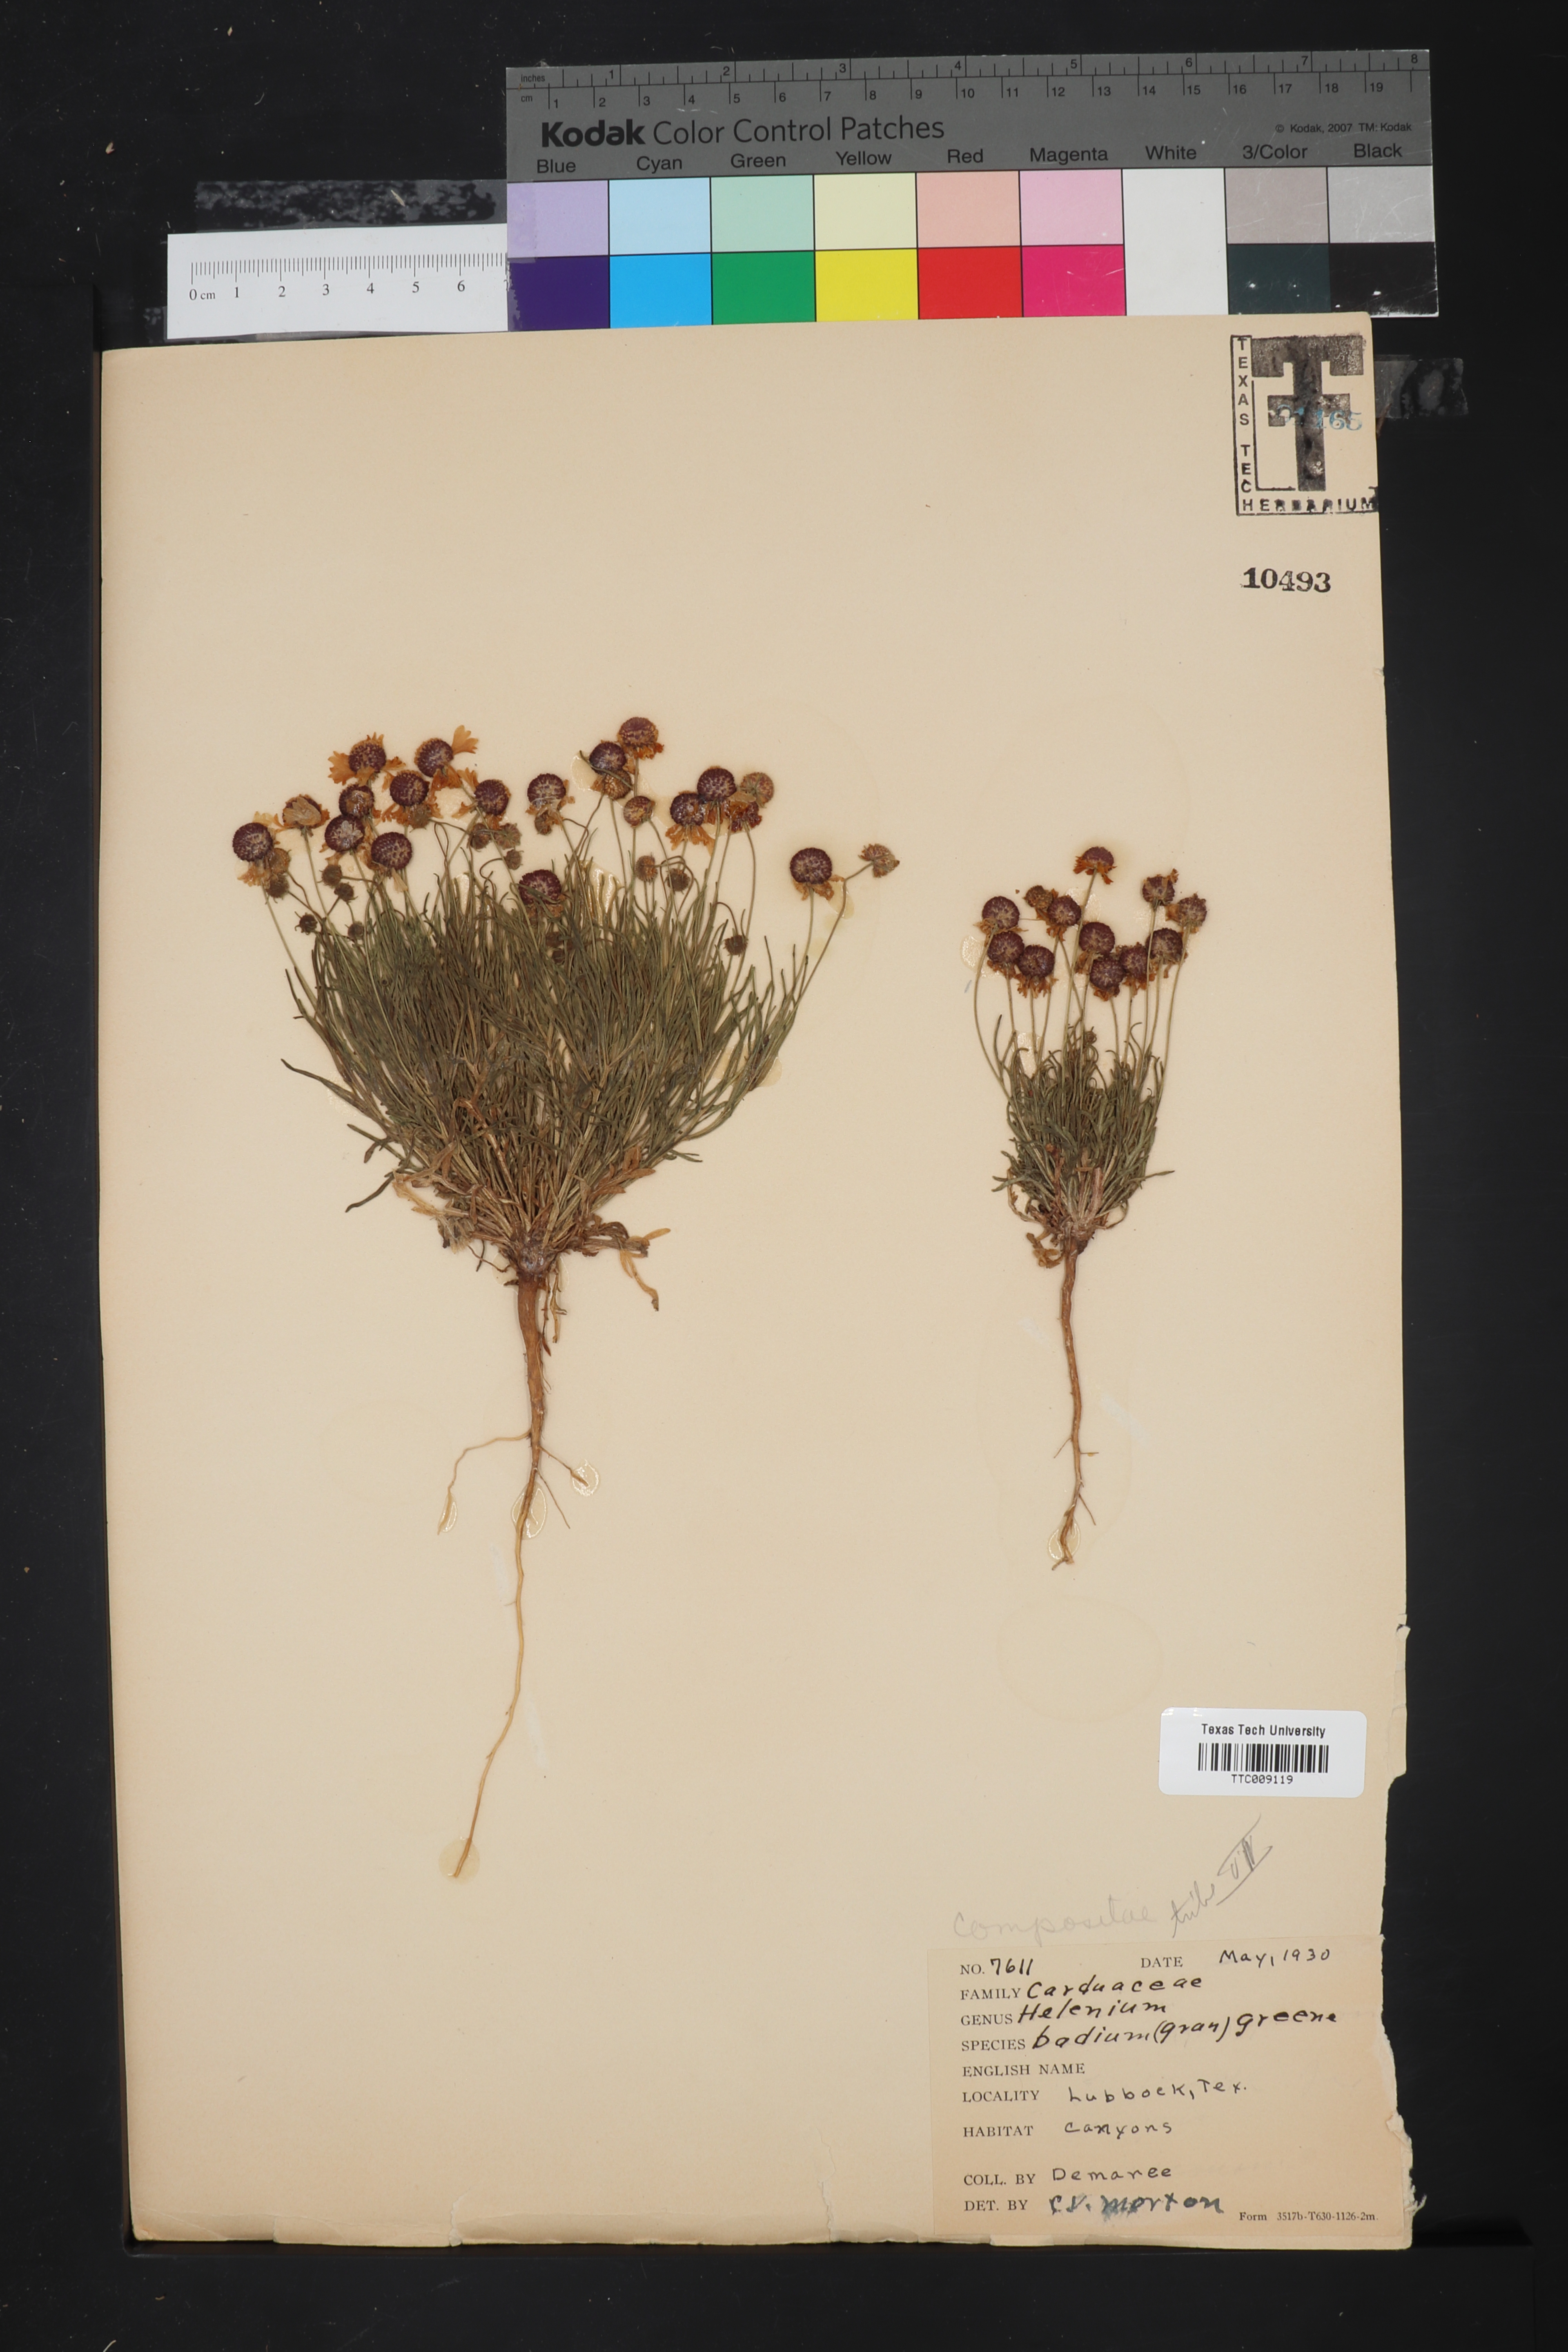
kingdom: Plantae
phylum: Tracheophyta
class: Magnoliopsida
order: Asterales
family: Asteraceae
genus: Helenium
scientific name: Helenium amarum
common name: Bitter sneezeweed
